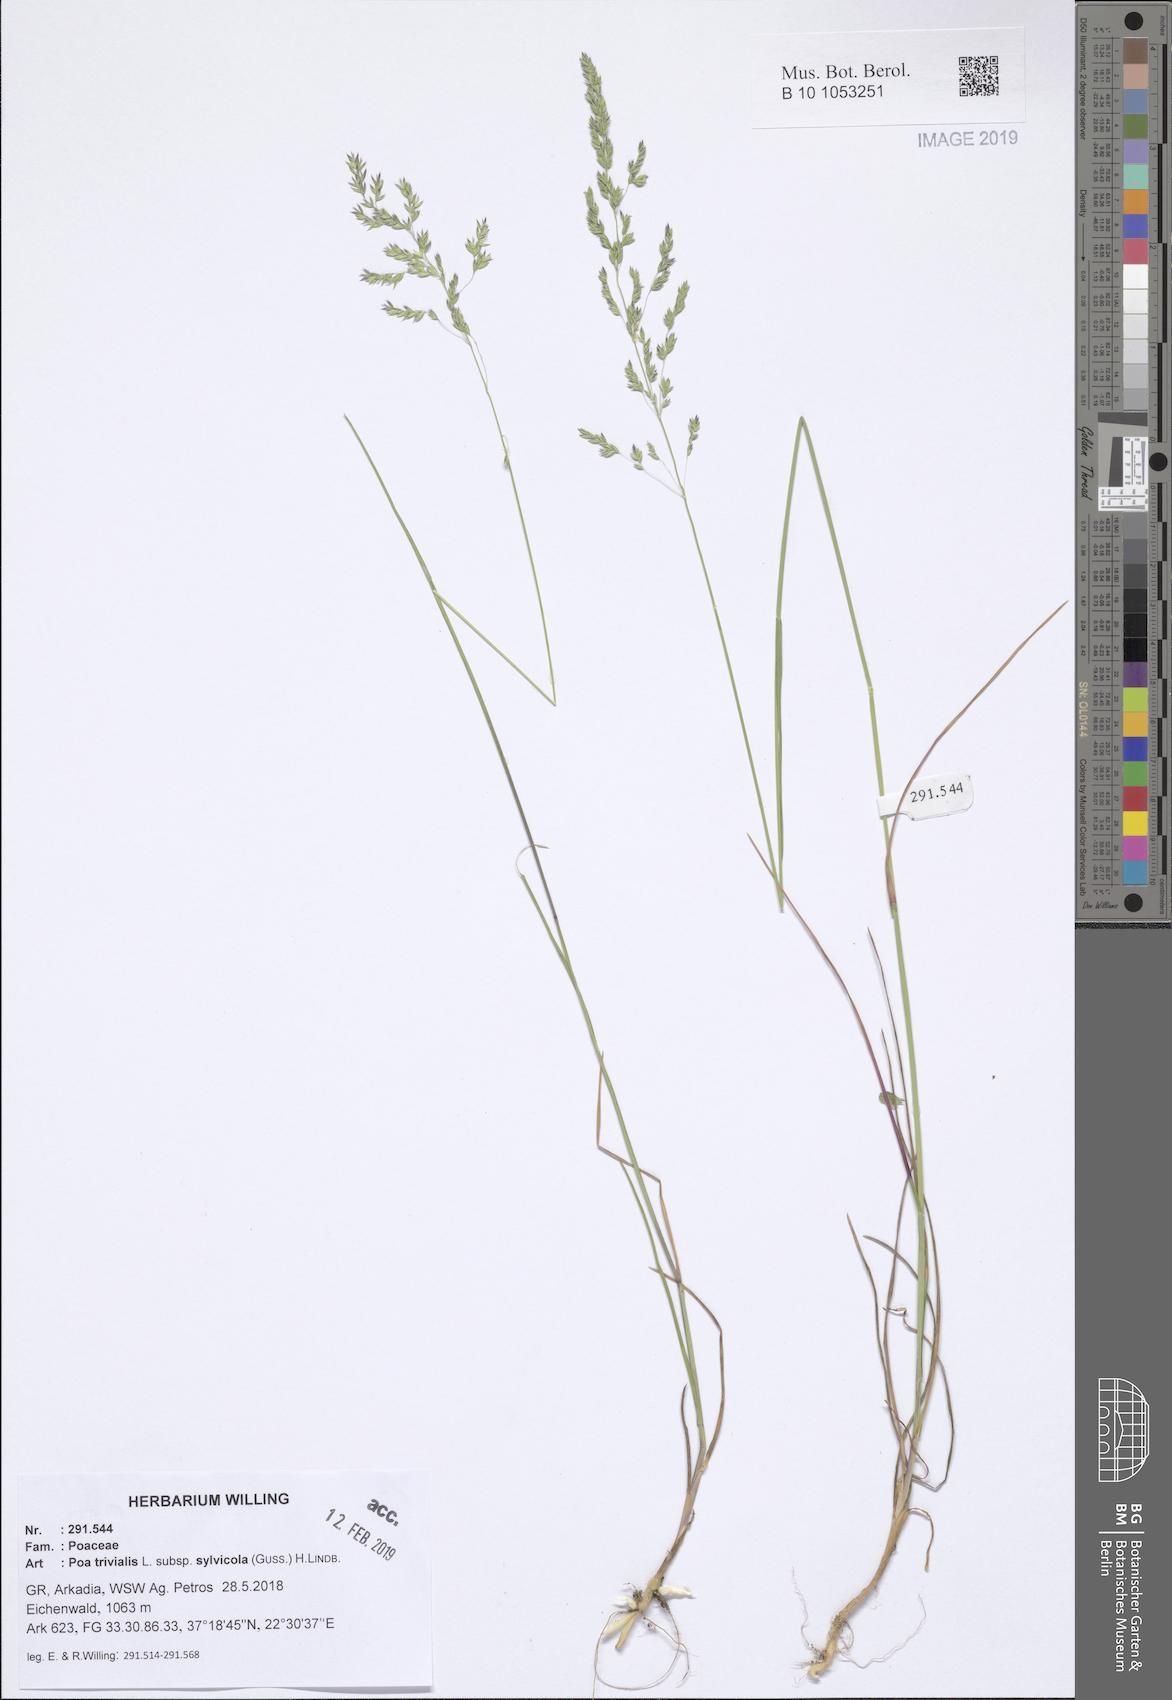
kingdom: Plantae
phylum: Tracheophyta
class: Liliopsida
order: Poales
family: Poaceae
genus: Poa
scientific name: Poa trivialis
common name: Rough bluegrass
